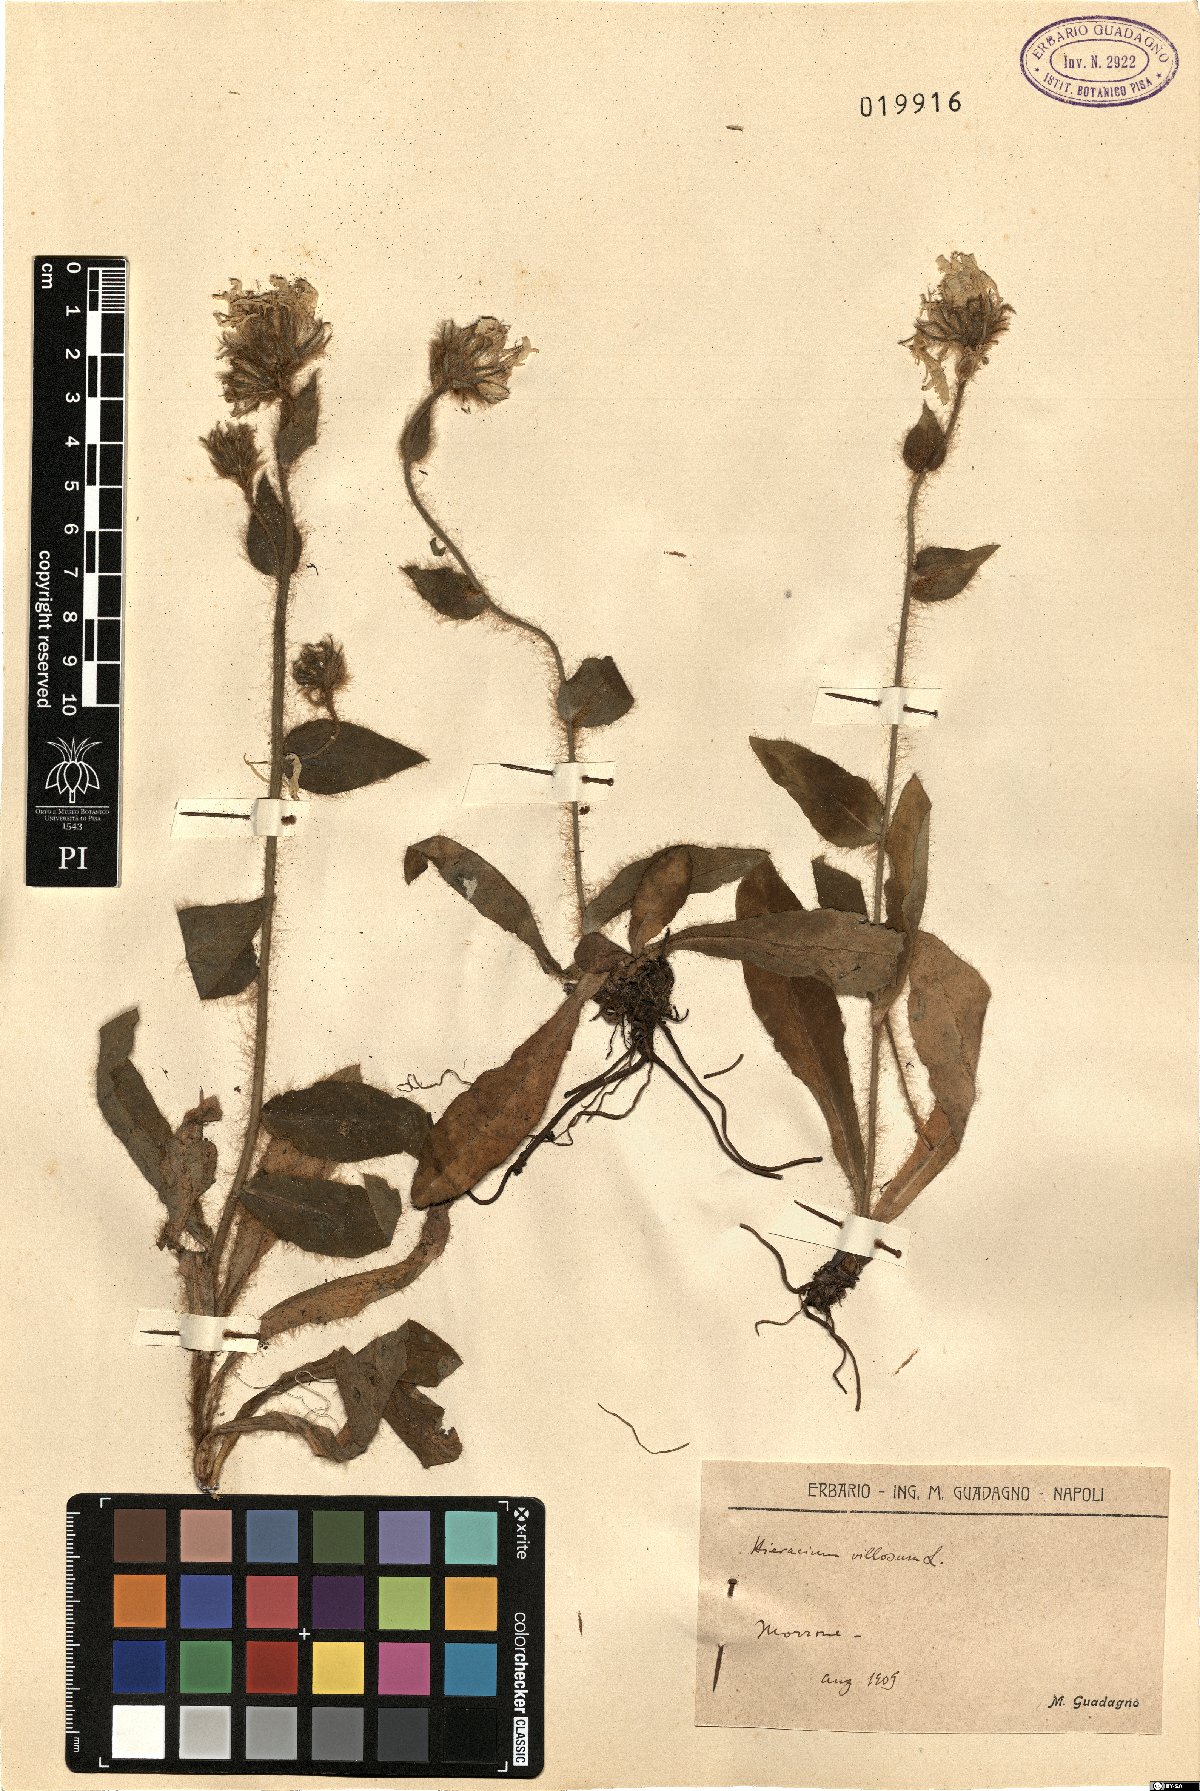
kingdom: Plantae
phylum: Tracheophyta
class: Magnoliopsida
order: Asterales
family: Asteraceae
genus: Hieracium
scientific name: Hieracium villosum
